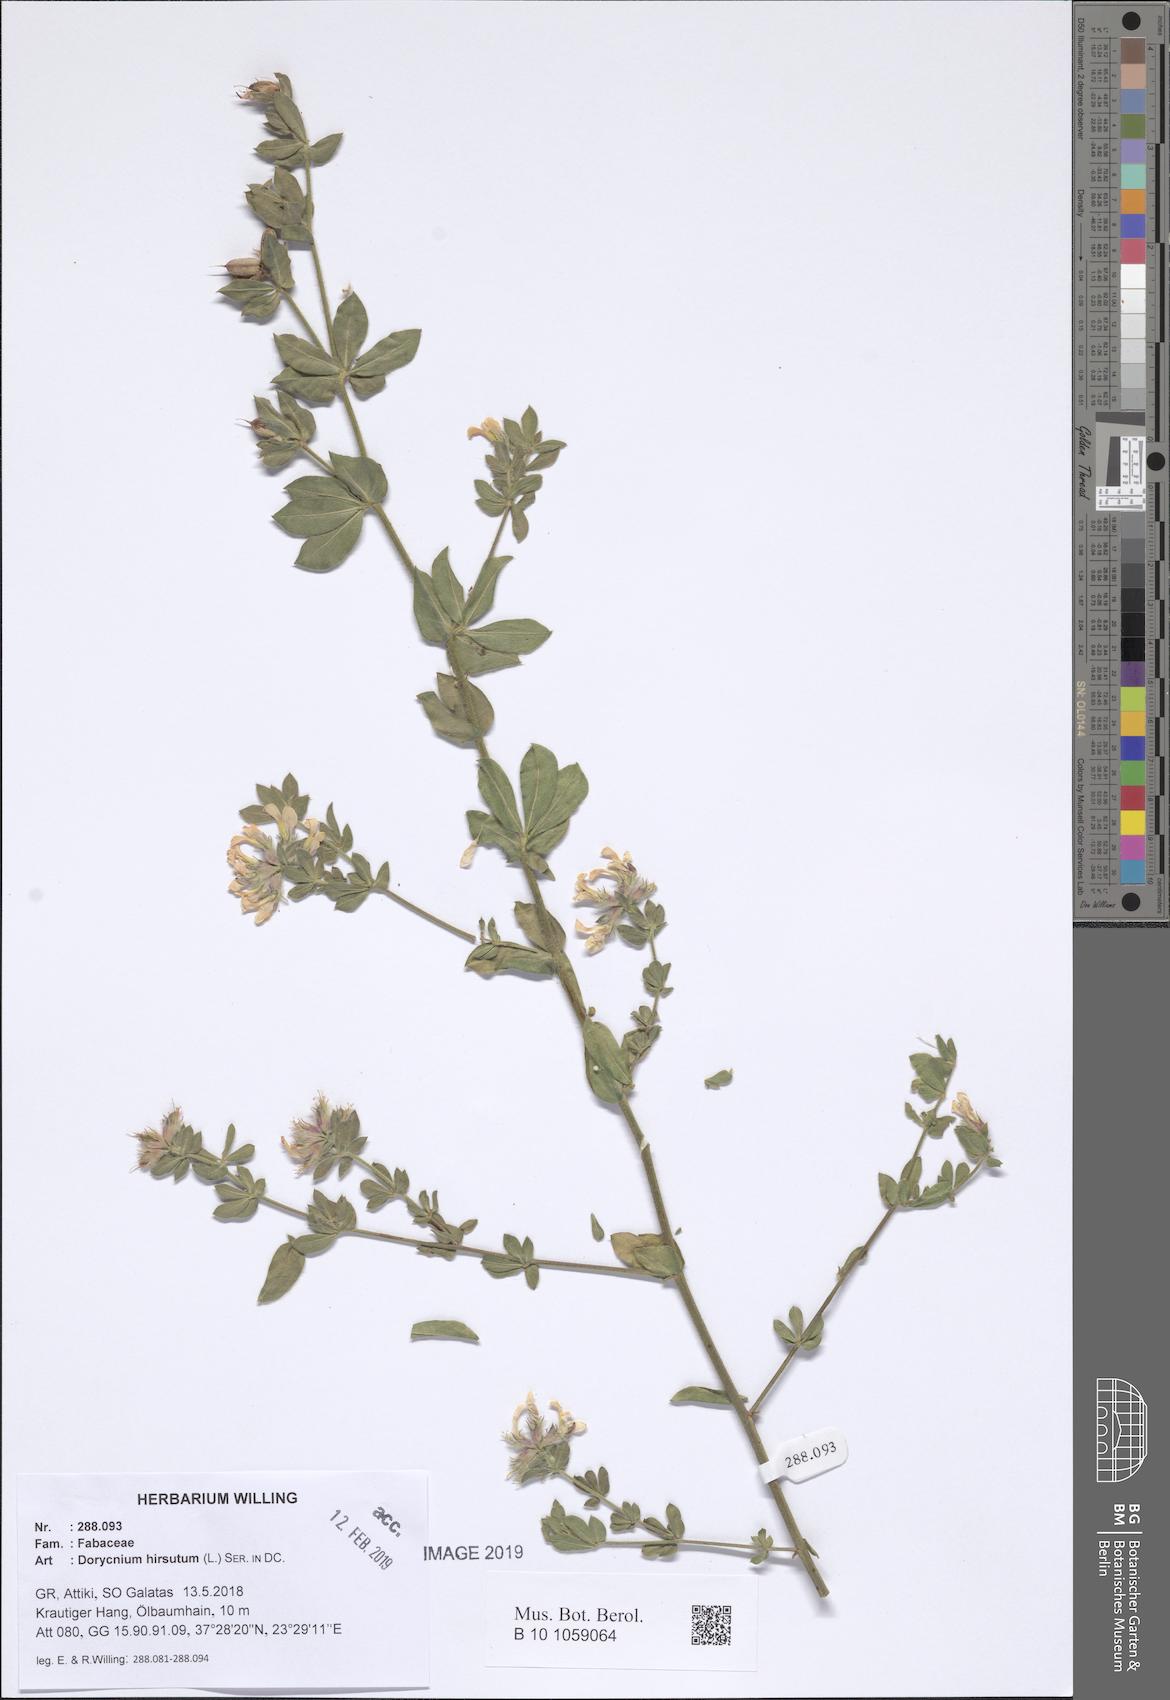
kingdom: Plantae
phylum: Tracheophyta
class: Magnoliopsida
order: Fabales
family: Fabaceae
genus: Lotus
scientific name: Lotus hirsutus
